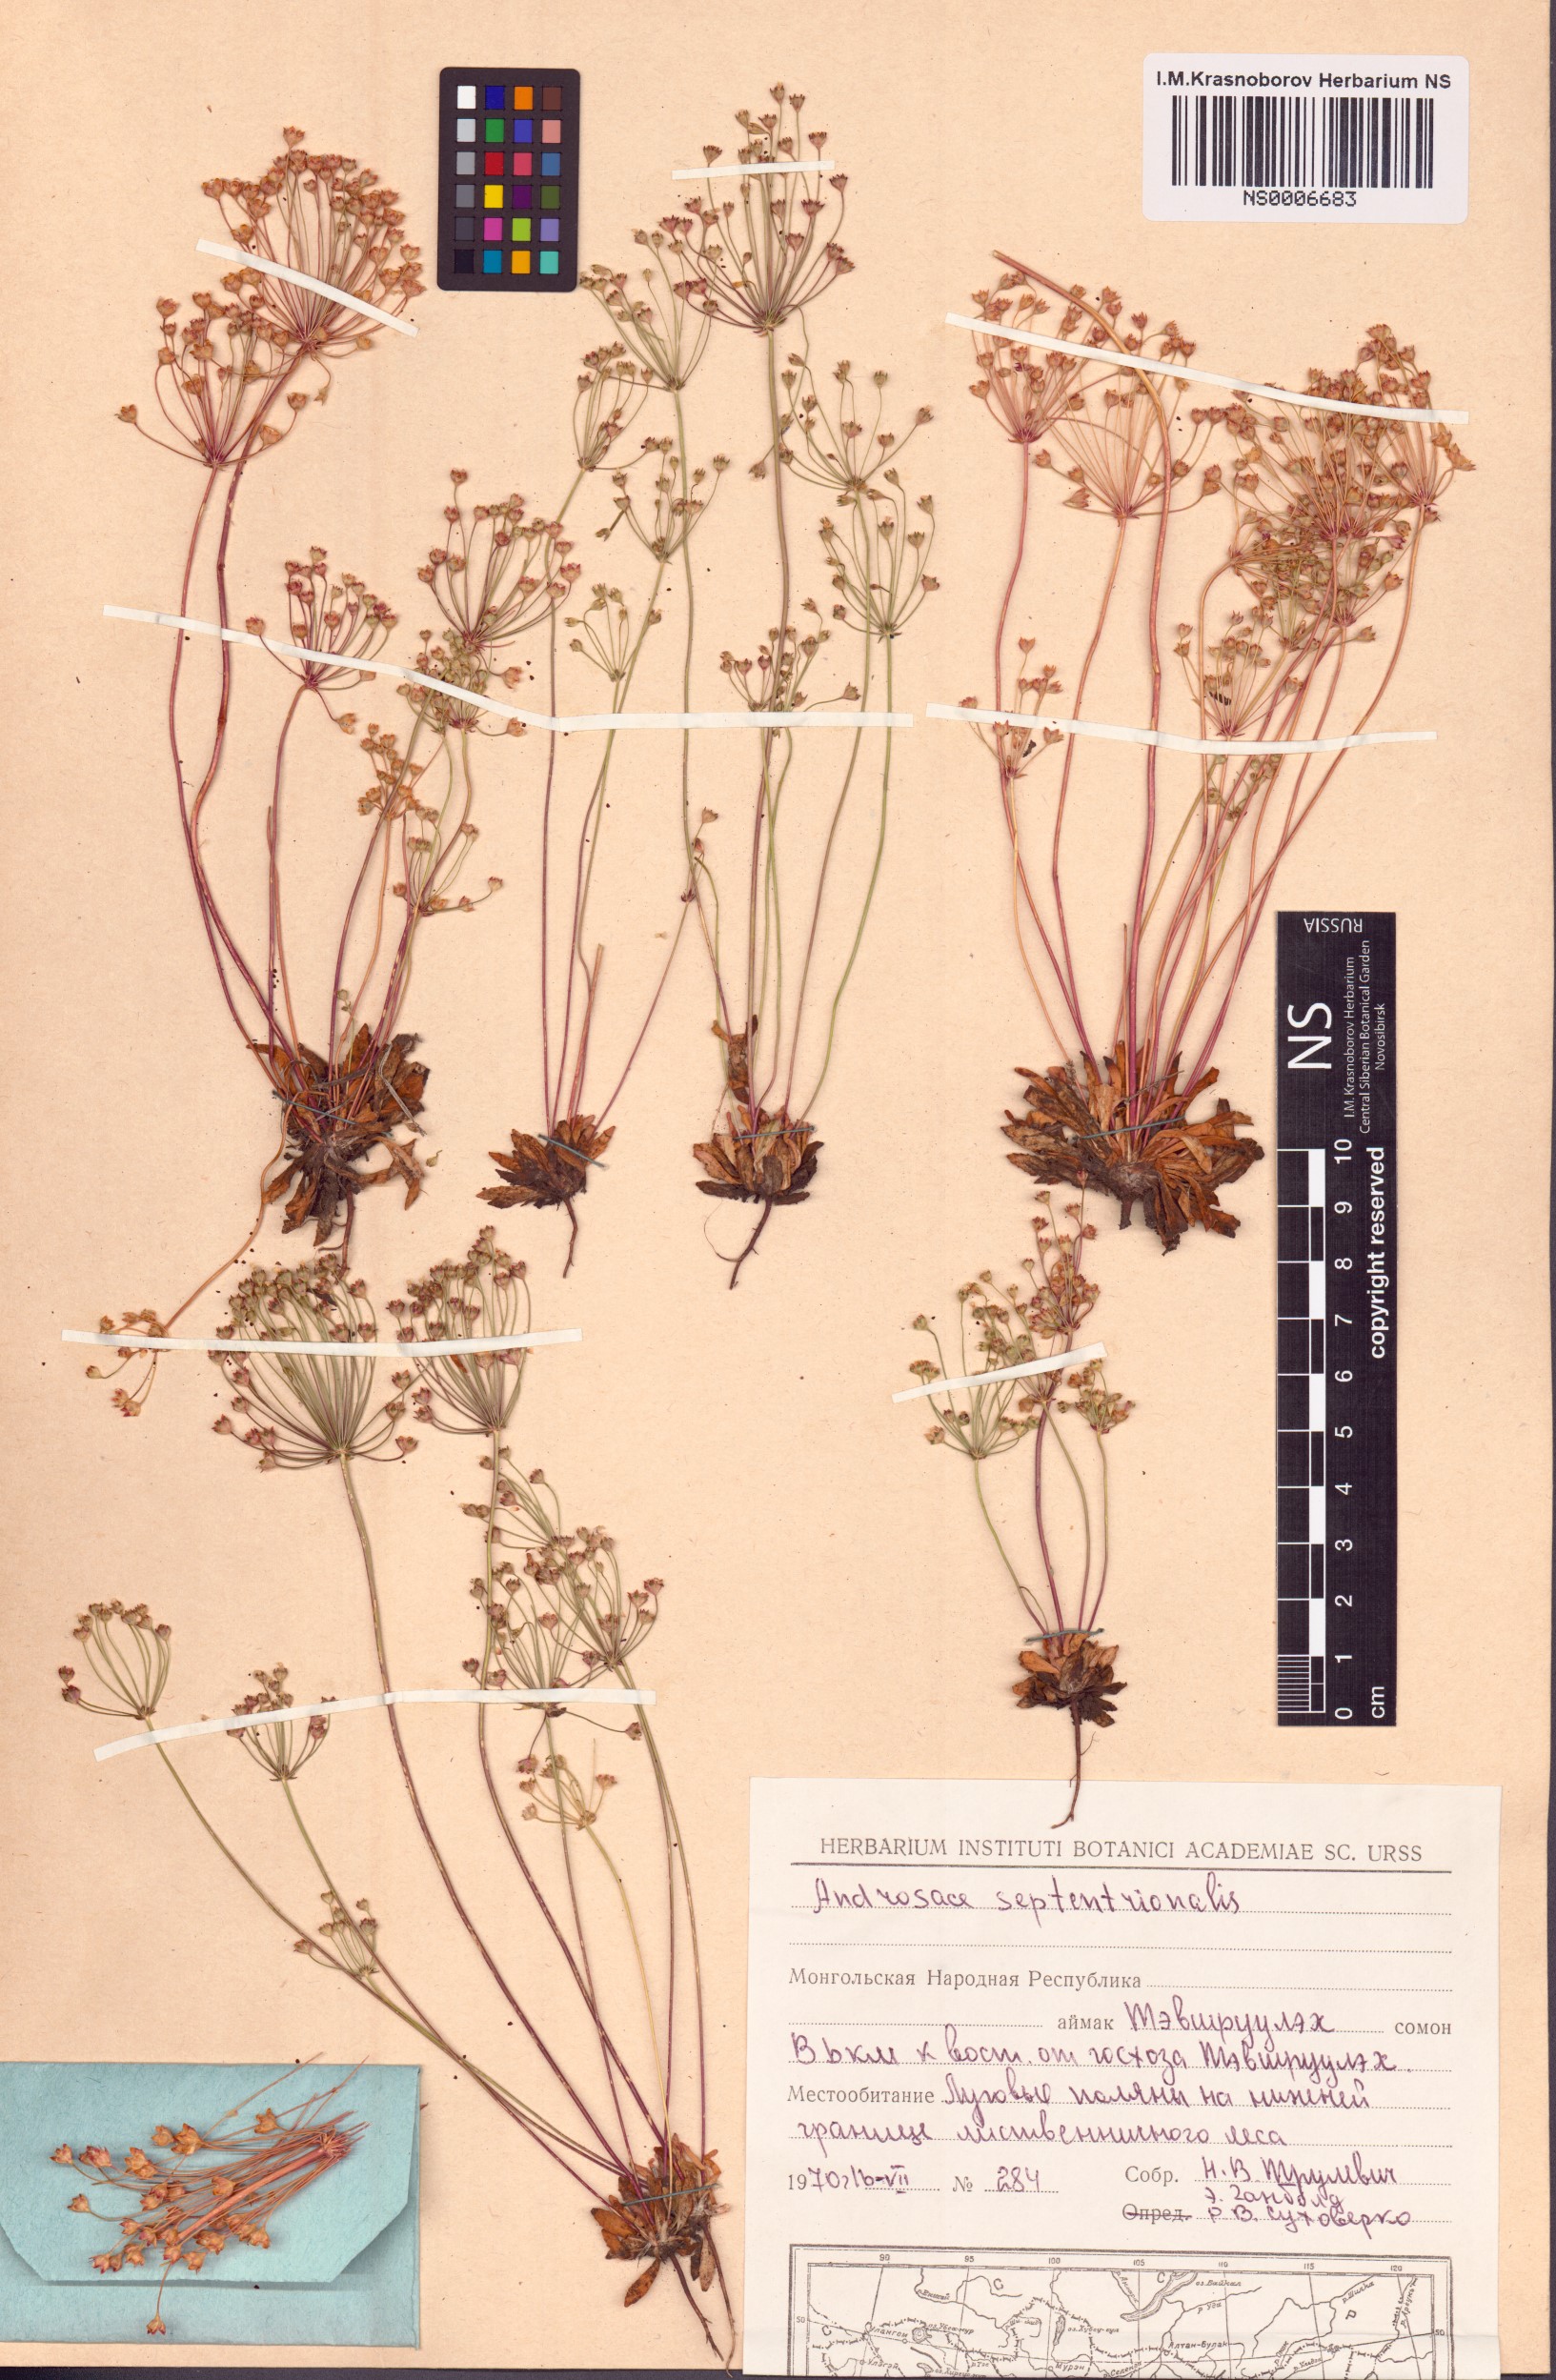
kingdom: Plantae
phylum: Tracheophyta
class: Magnoliopsida
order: Ericales
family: Primulaceae
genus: Androsace
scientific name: Androsace septentrionalis
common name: Hairy northern fairy-candelabra
